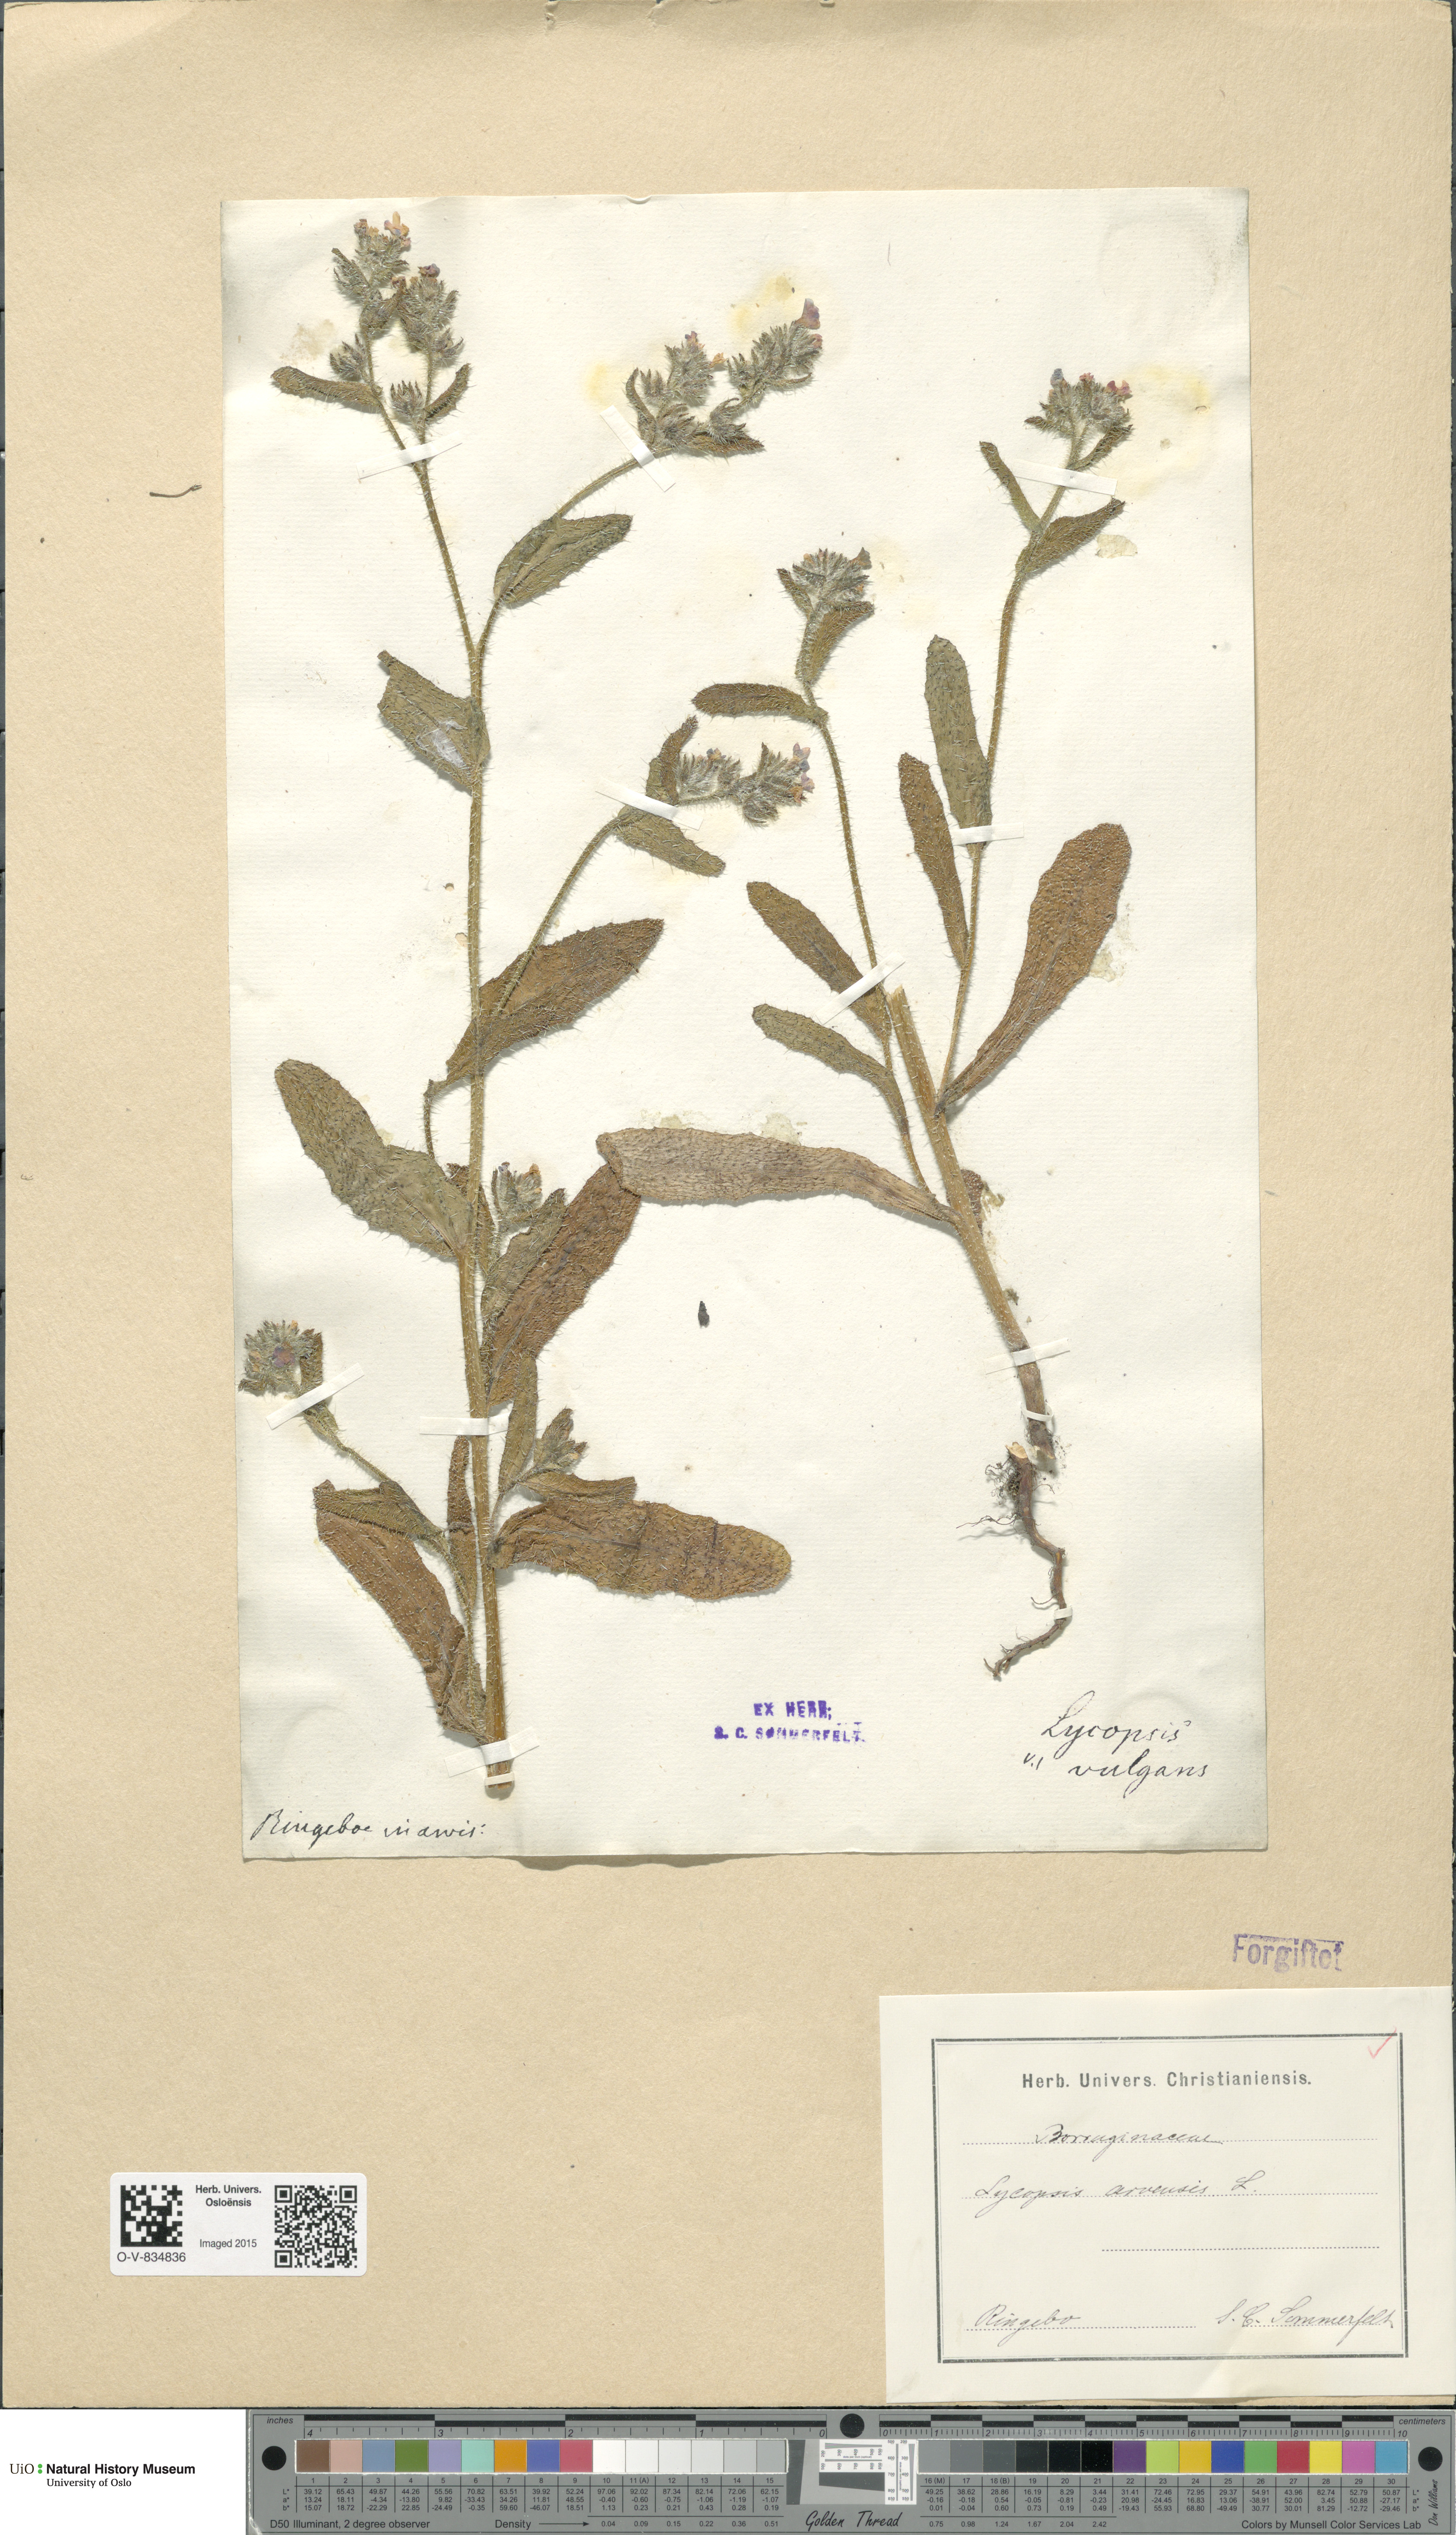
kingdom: Plantae
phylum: Tracheophyta
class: Magnoliopsida
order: Boraginales
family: Boraginaceae
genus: Lycopsis
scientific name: Lycopsis arvensis
